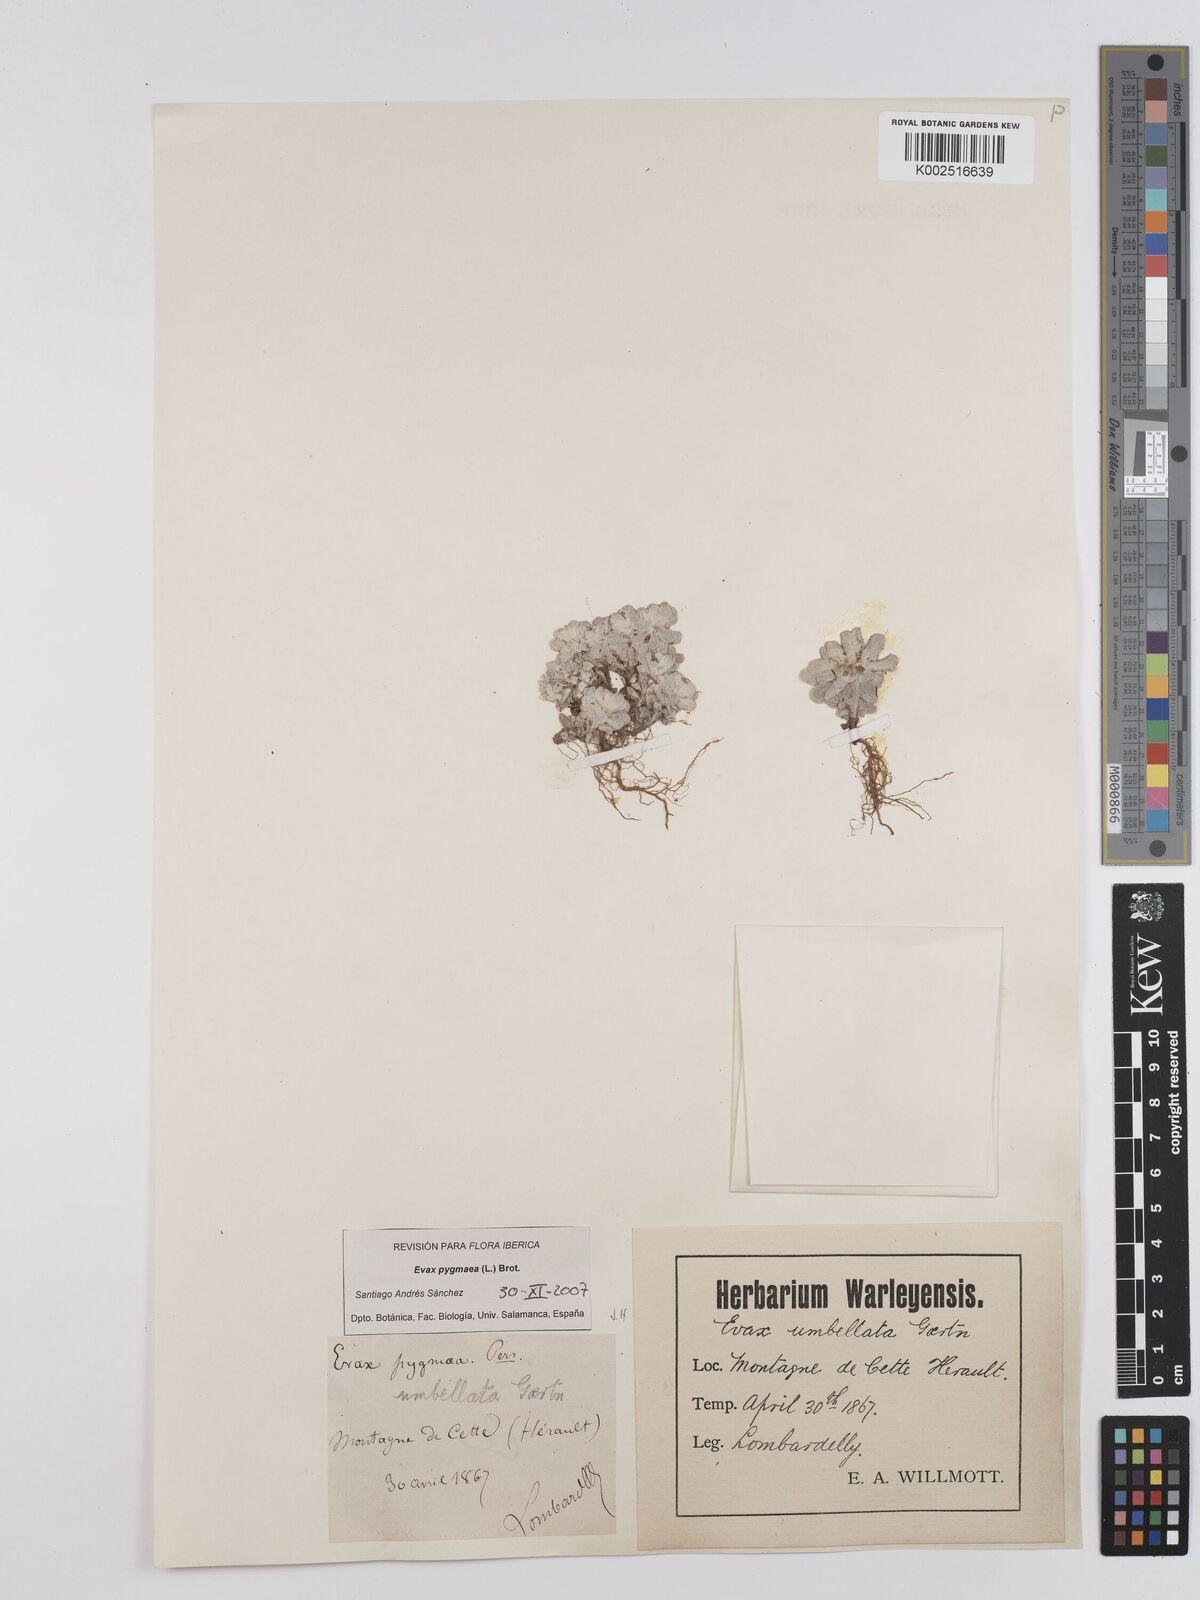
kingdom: Plantae
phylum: Tracheophyta
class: Magnoliopsida
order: Asterales
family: Asteraceae
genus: Filago
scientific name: Filago pygmaea
